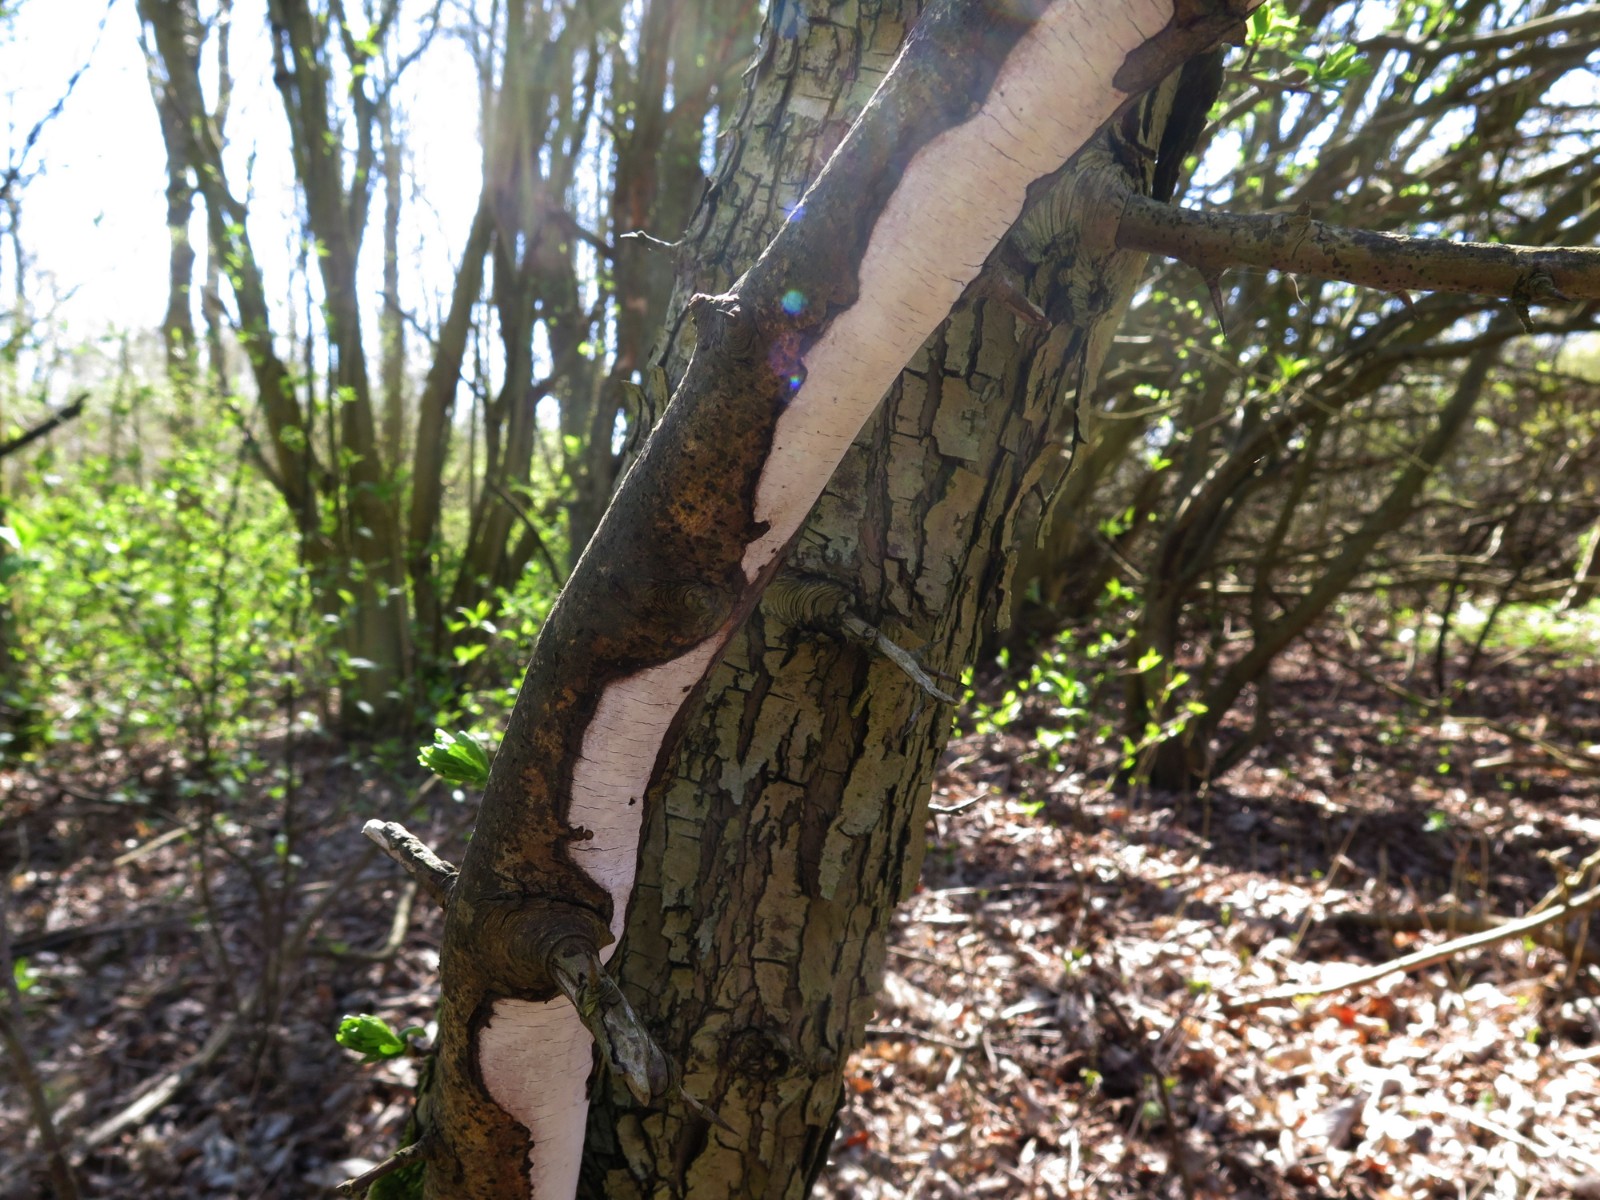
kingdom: Fungi
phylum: Basidiomycota
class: Agaricomycetes
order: Corticiales
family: Vuilleminiaceae
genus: Vuilleminia
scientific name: Vuilleminia cystidiata
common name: tjørne-barksprænger
